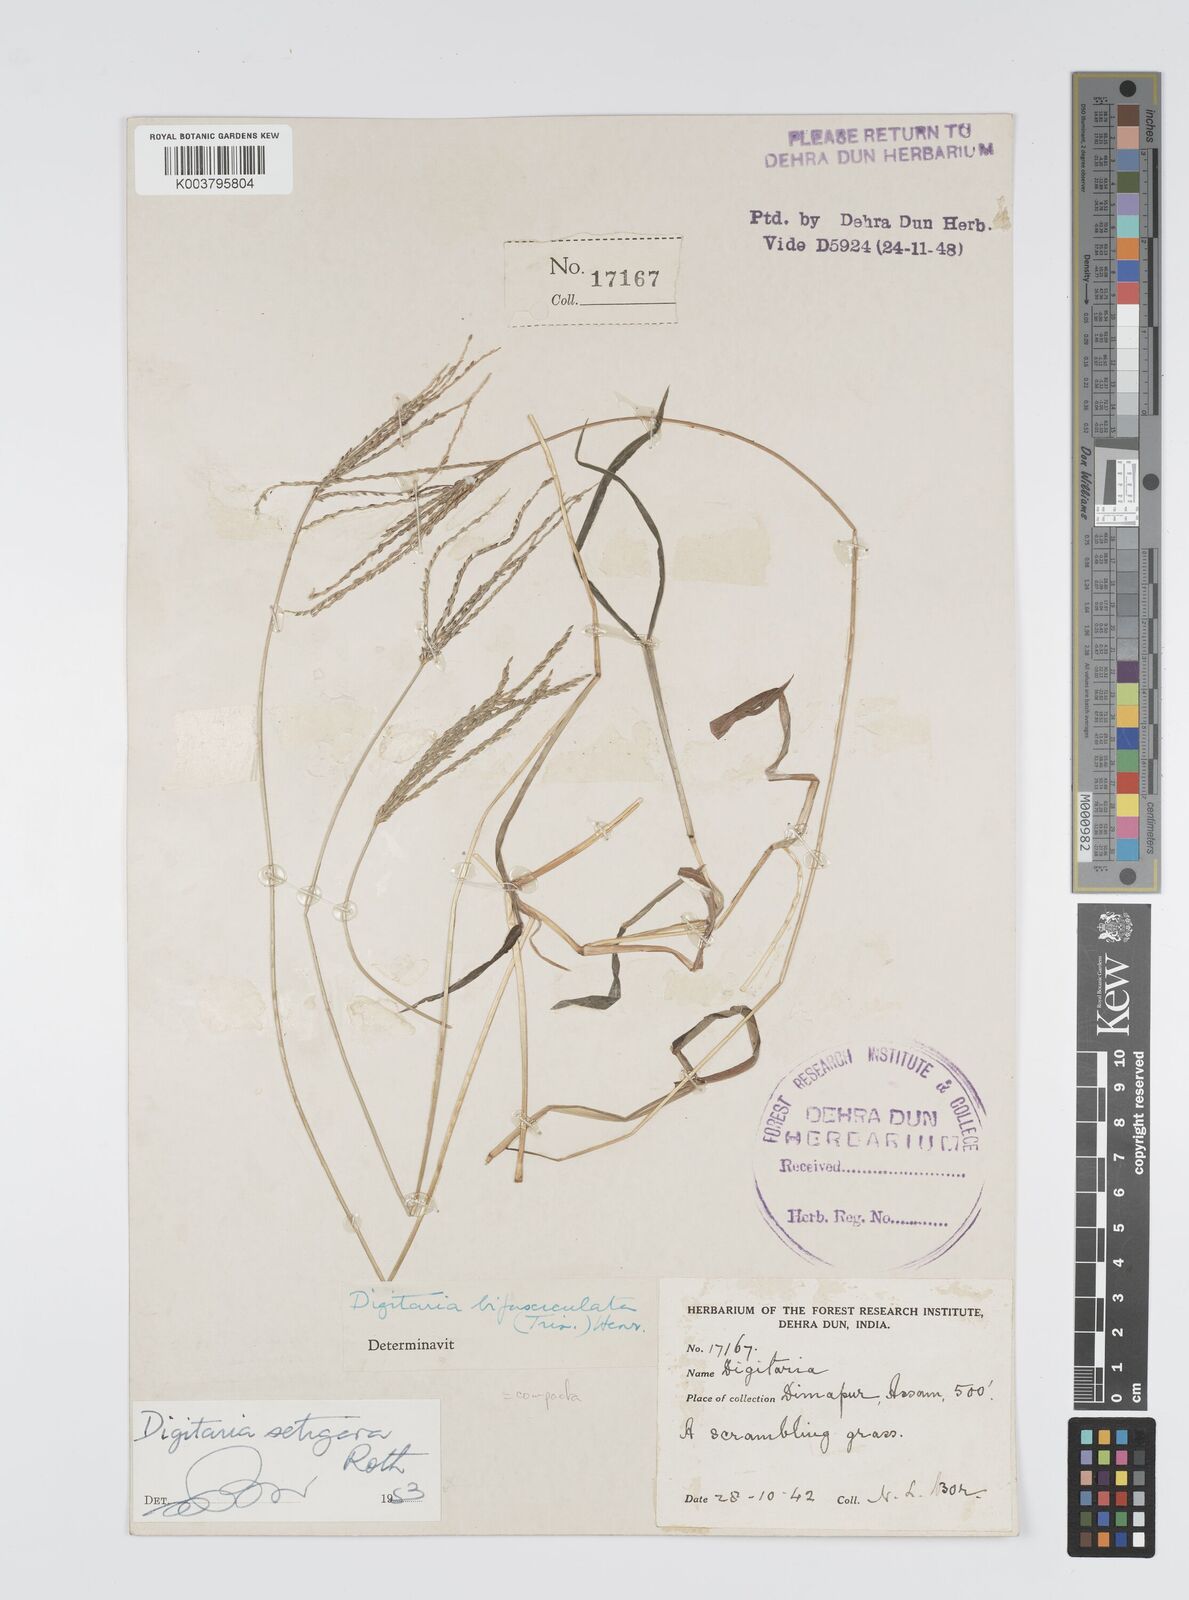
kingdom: Plantae
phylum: Tracheophyta
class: Liliopsida
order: Poales
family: Poaceae
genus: Digitaria
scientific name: Digitaria compacta
